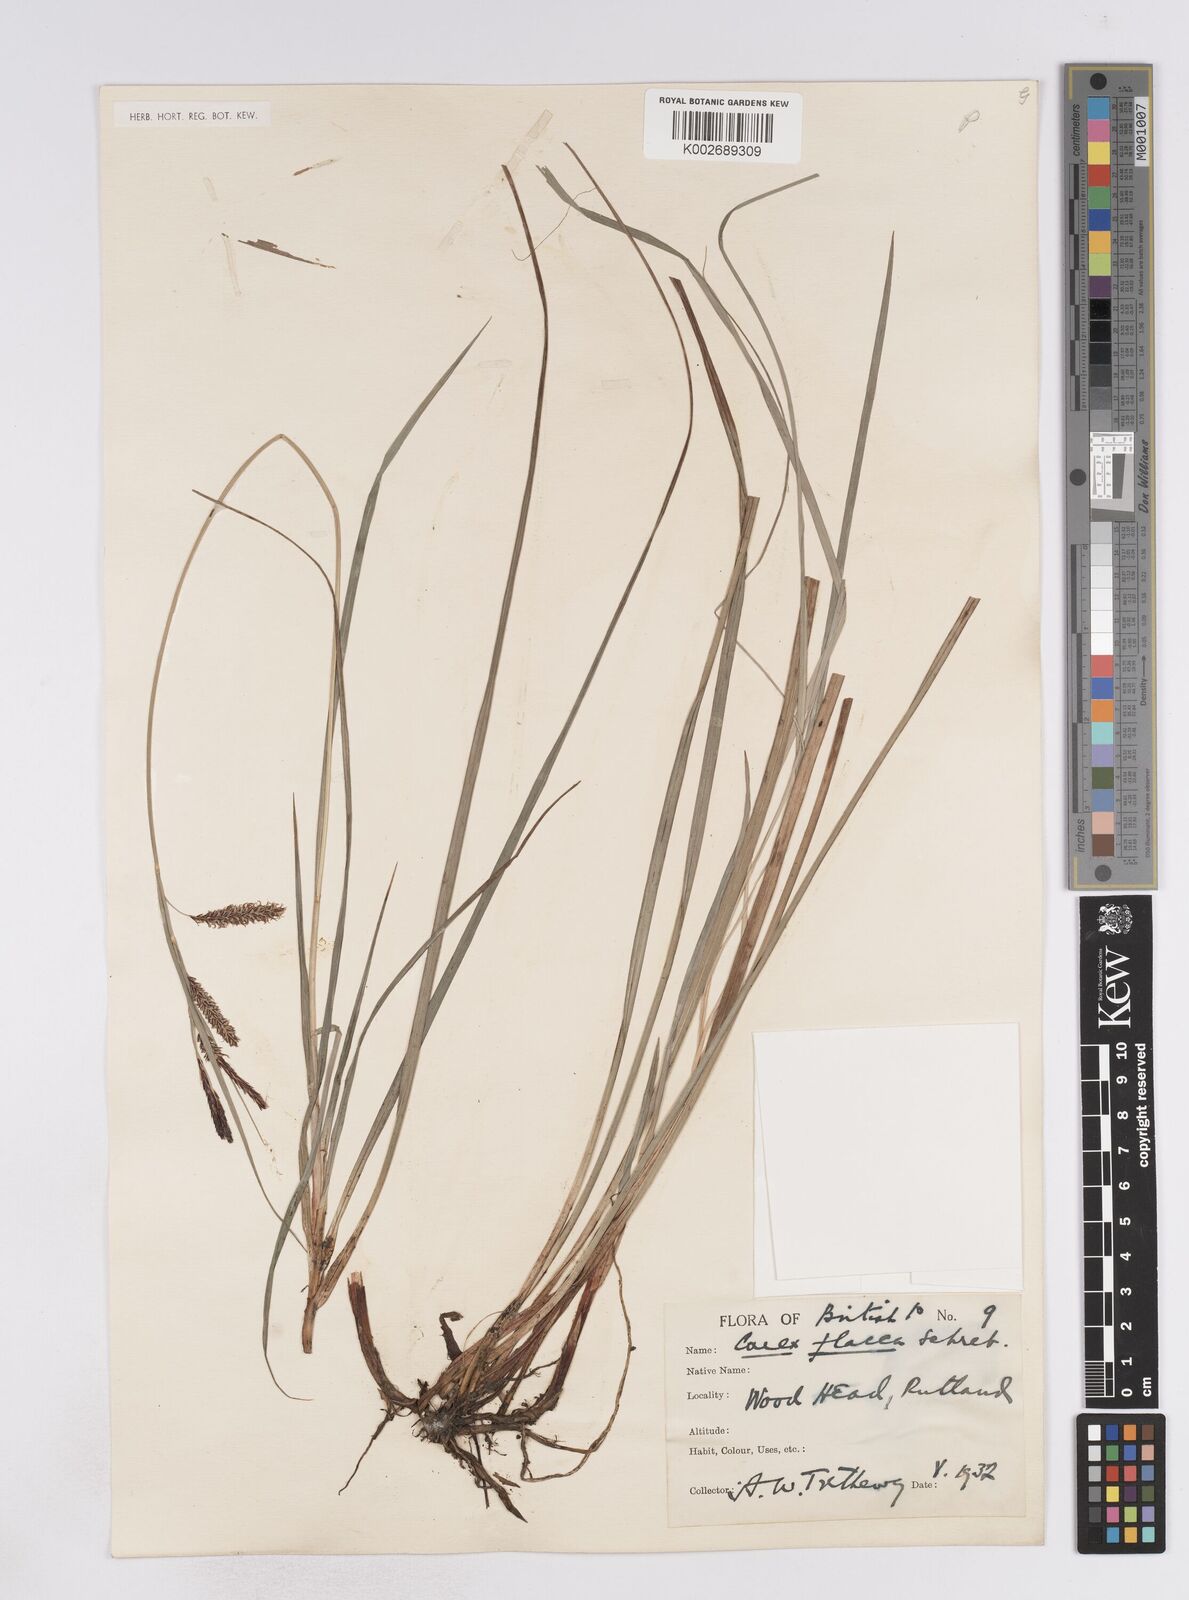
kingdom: Plantae
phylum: Tracheophyta
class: Liliopsida
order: Poales
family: Cyperaceae
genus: Carex
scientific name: Carex flacca
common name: Glaucous sedge
